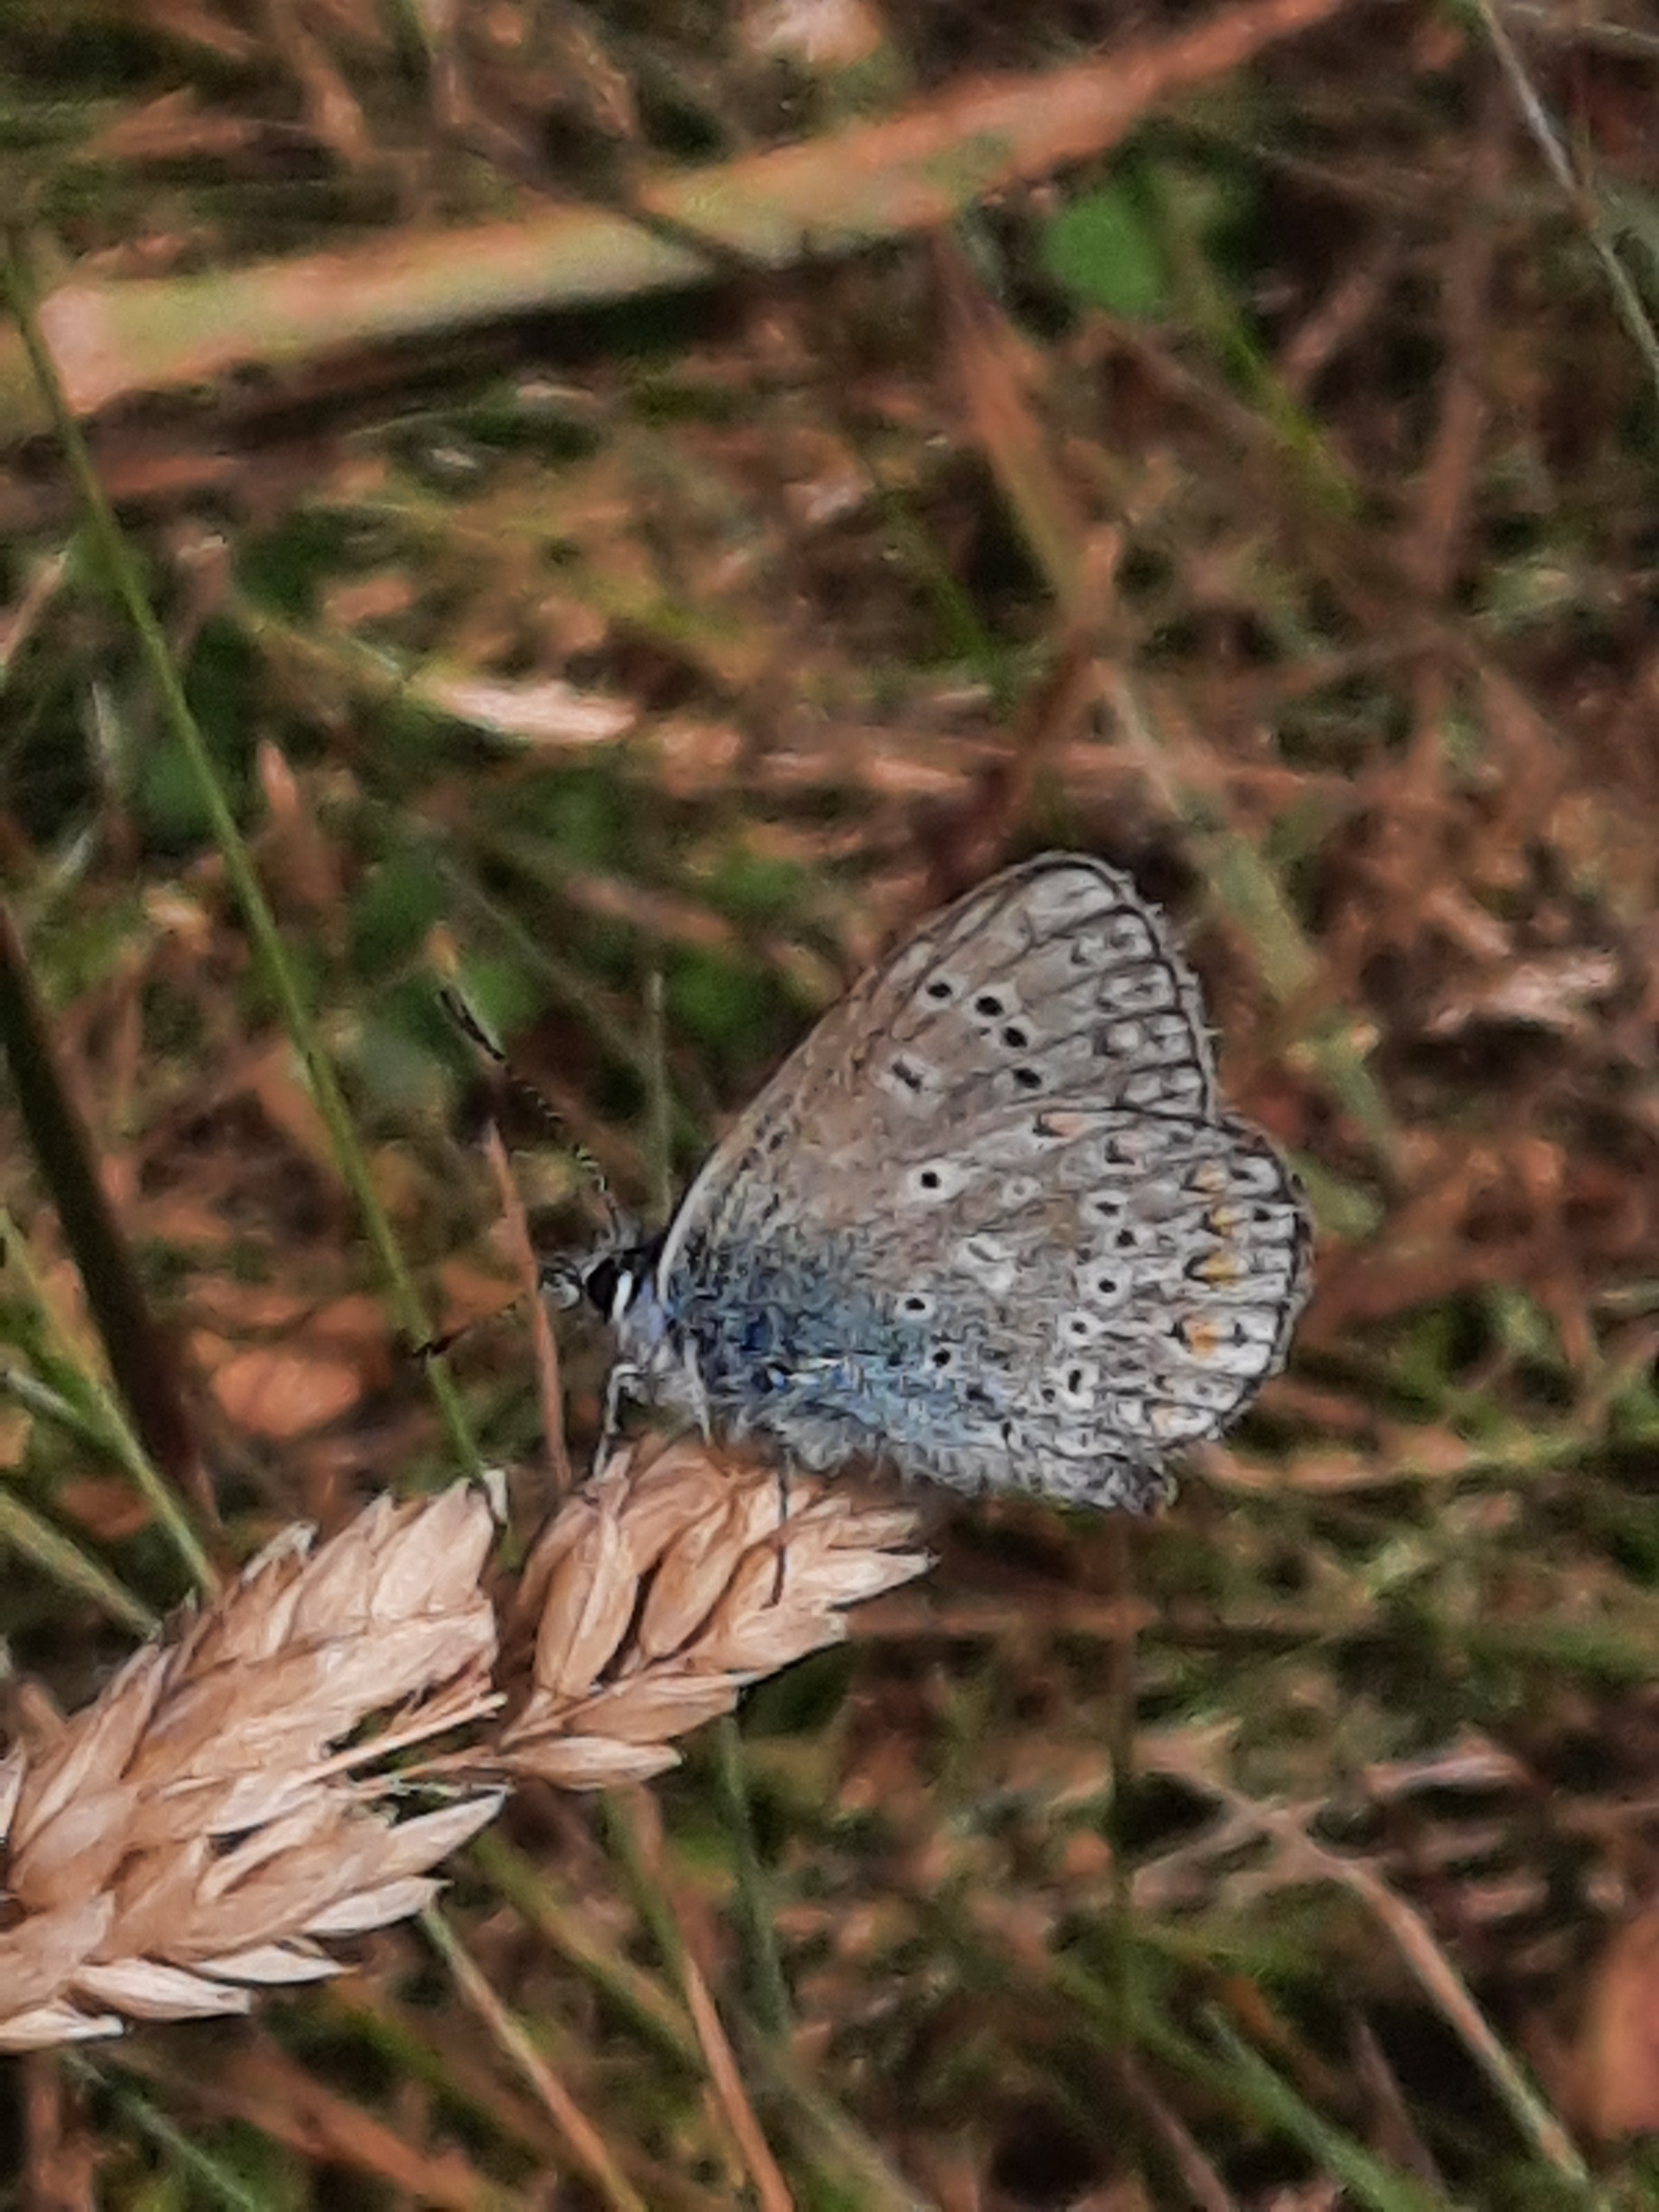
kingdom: Animalia
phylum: Arthropoda
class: Insecta
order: Lepidoptera
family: Lycaenidae
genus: Polyommatus
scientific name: Polyommatus icarus
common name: Almindelig blåfugl
